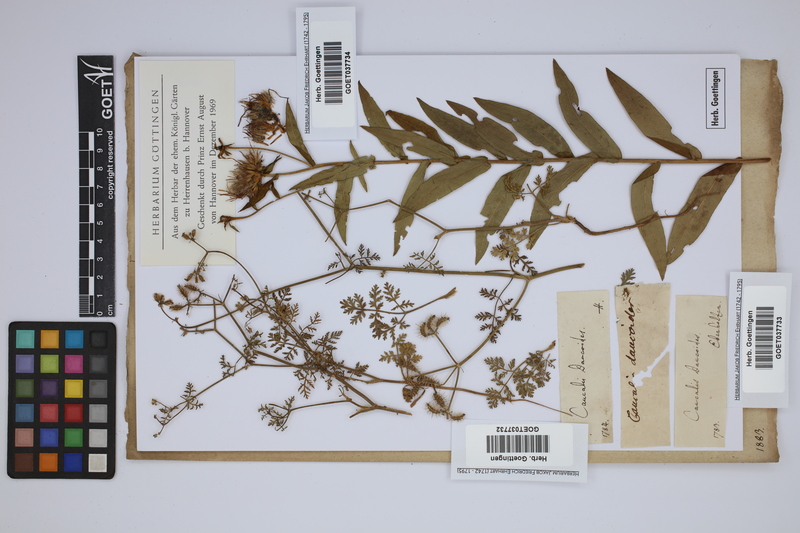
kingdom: Plantae
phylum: Tracheophyta
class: Magnoliopsida
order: Apiales
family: Apiaceae
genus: Orlaya
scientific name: Orlaya daucoides
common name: Flat-fruit orlaya
